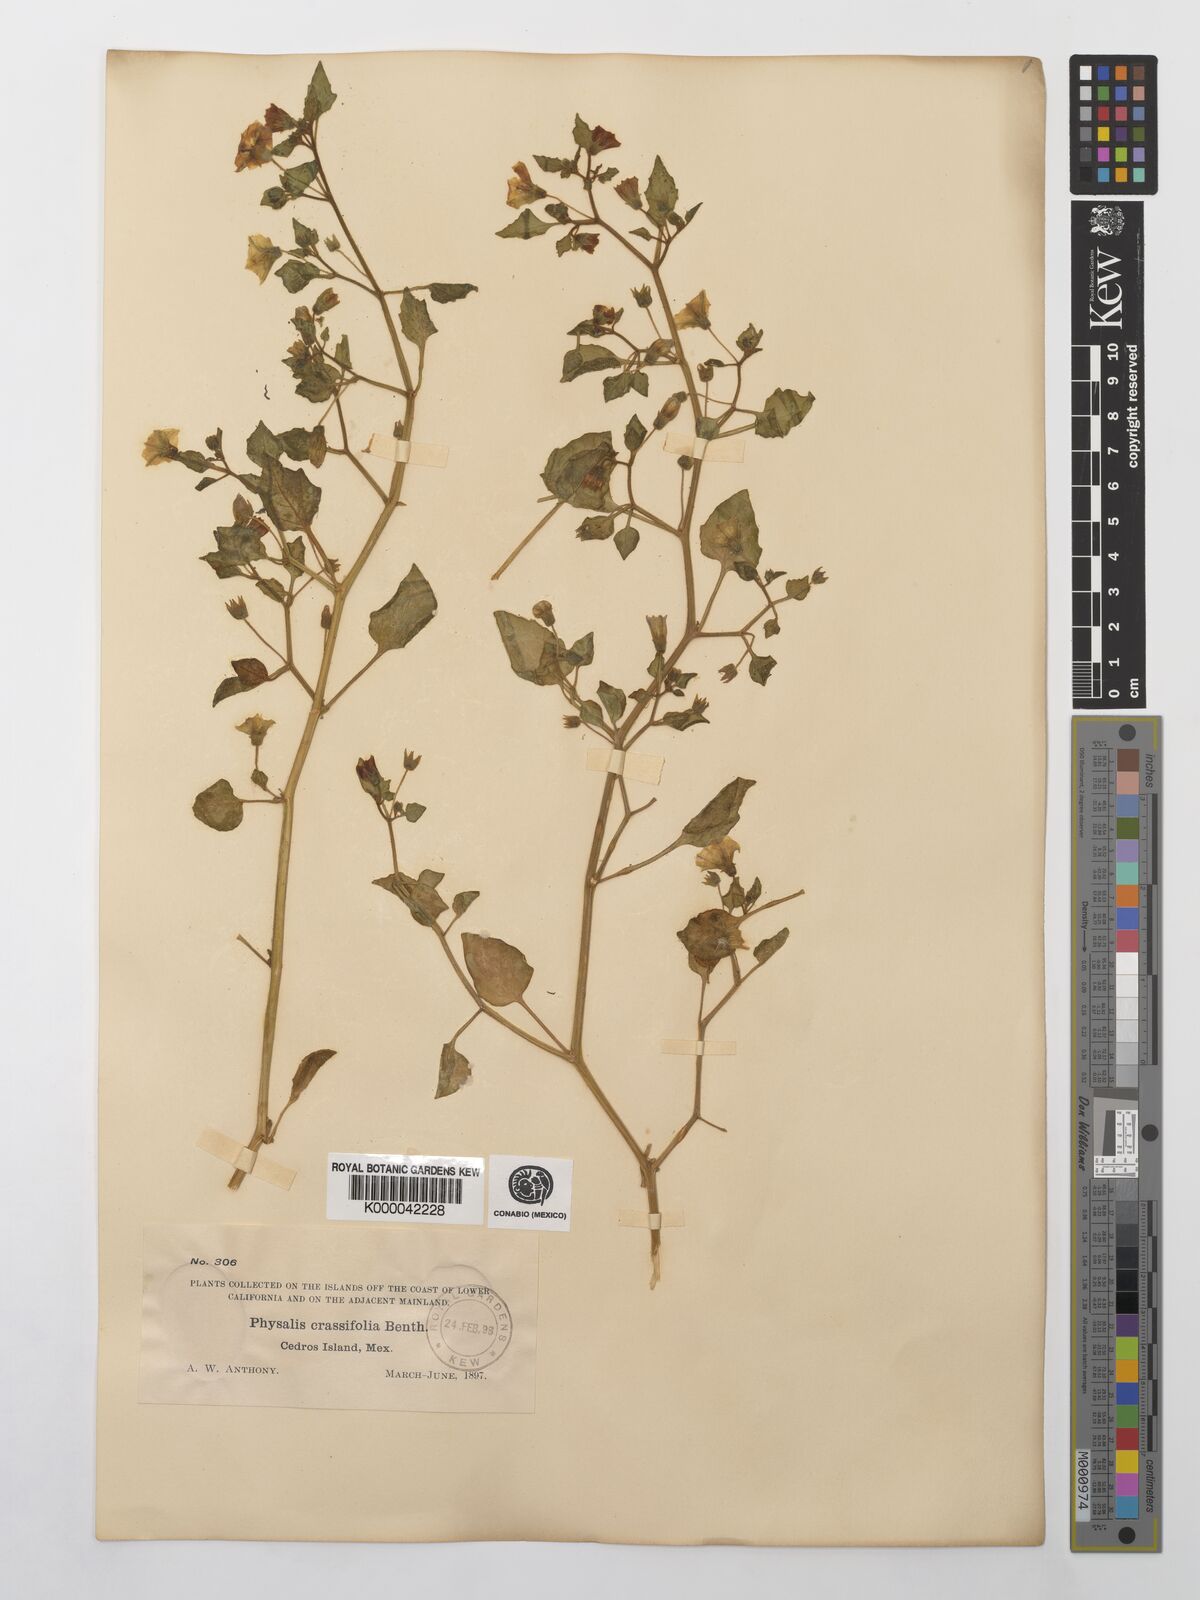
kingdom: Plantae
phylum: Tracheophyta
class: Magnoliopsida
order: Solanales
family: Solanaceae
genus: Physalis
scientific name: Physalis crassifolia
